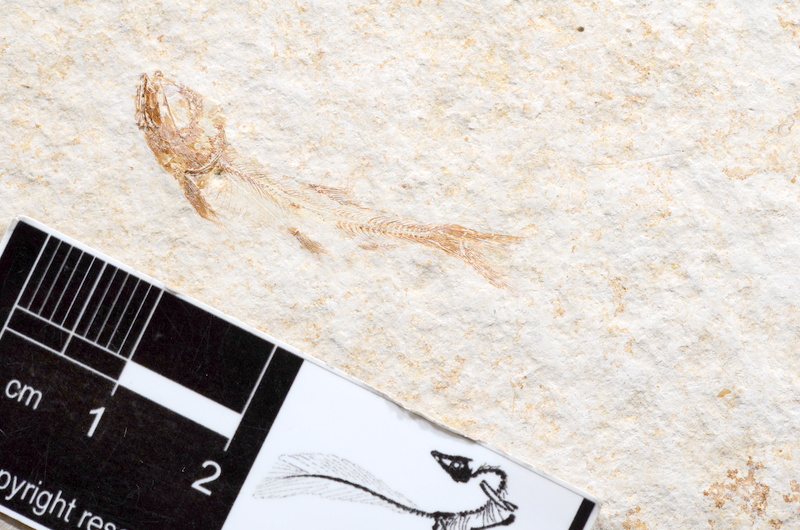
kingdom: Animalia
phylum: Chordata
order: Elopiformes
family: Anaethalionidae
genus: Anaethalion
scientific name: Anaethalion
